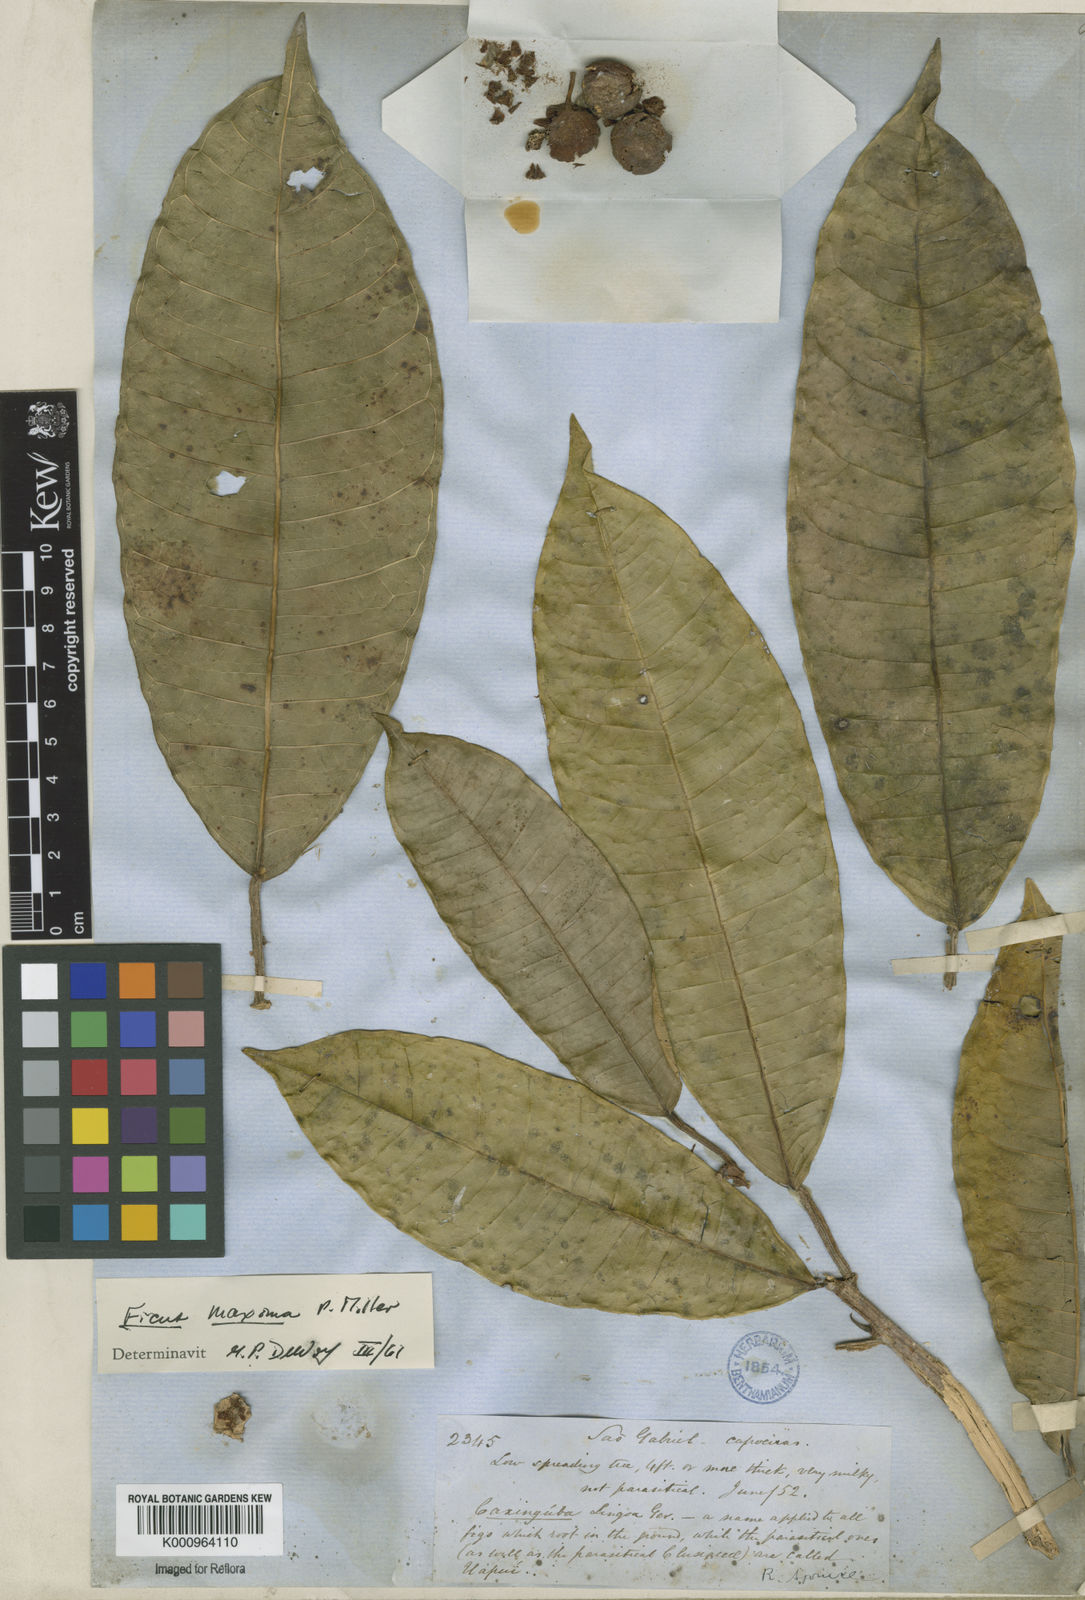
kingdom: Plantae
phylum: Tracheophyta
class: Magnoliopsida
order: Rosales
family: Moraceae
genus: Ficus
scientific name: Ficus maxima
